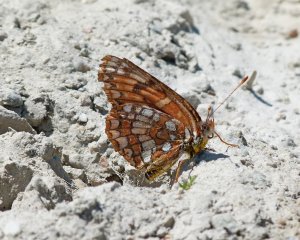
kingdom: Animalia
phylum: Arthropoda
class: Insecta
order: Lepidoptera
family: Nymphalidae
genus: Occidryas
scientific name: Occidryas chalcedona
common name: Chalcedon Checkerspot
